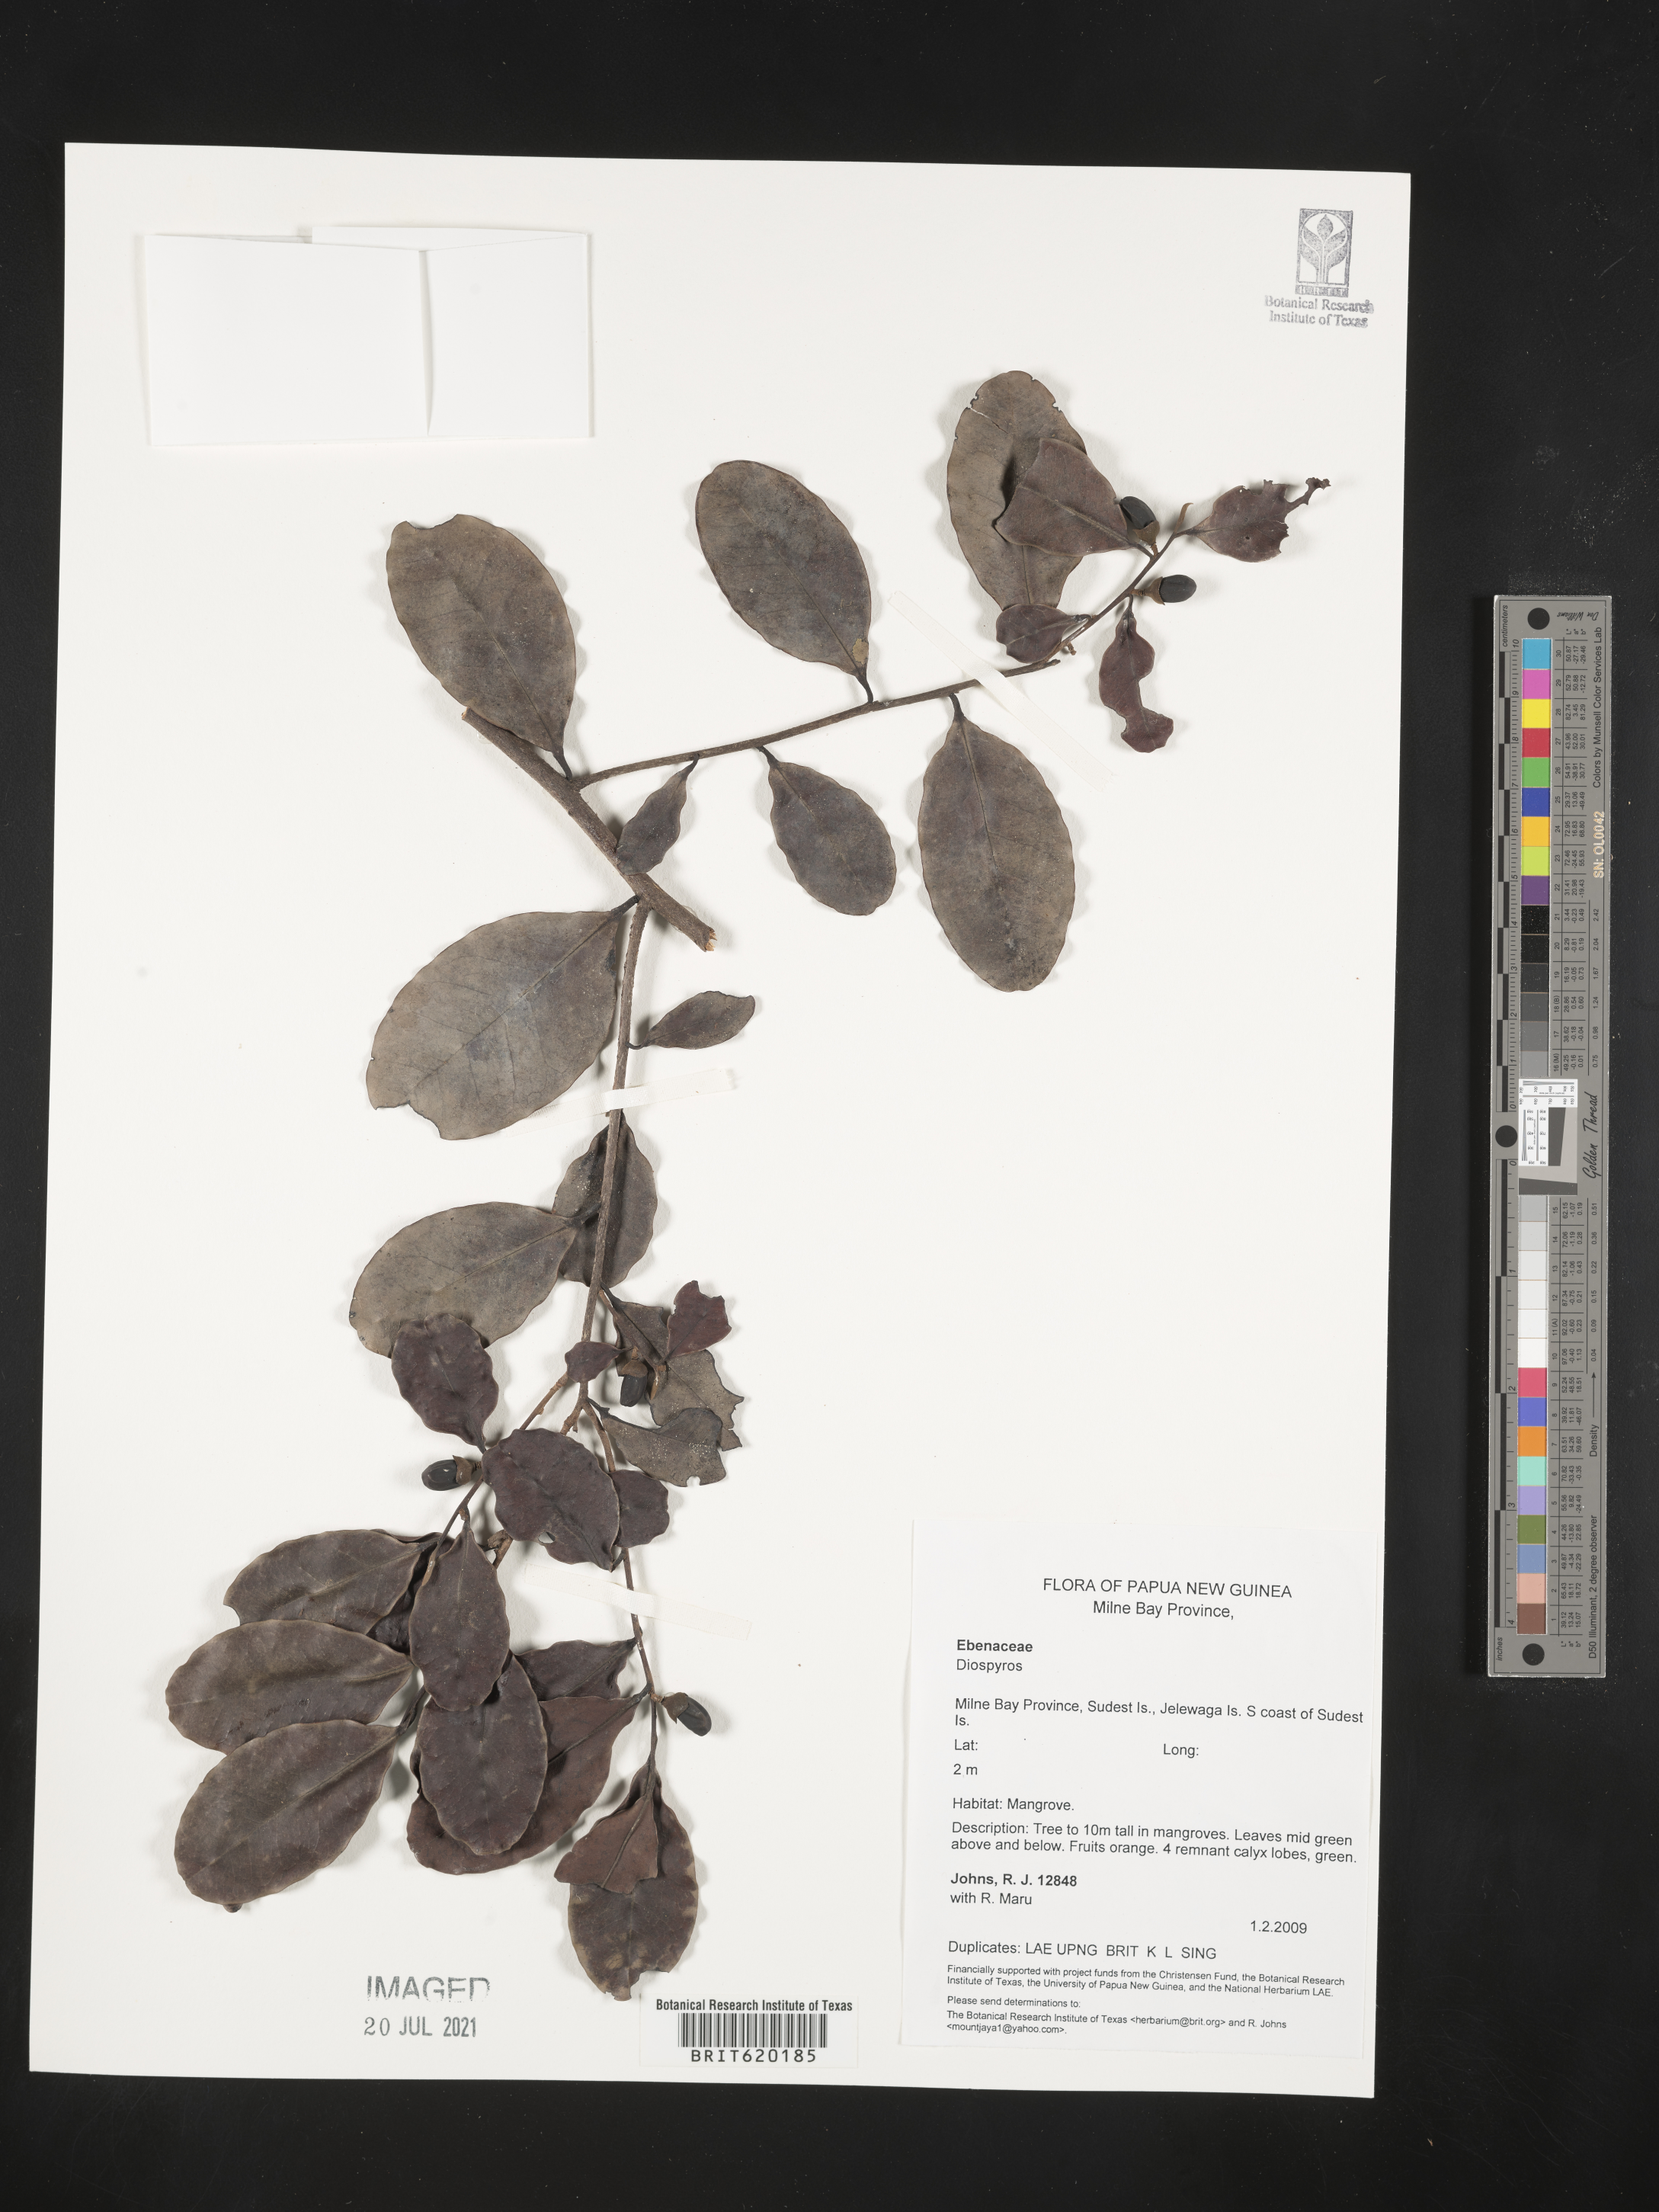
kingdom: Plantae
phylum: Tracheophyta
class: Magnoliopsida
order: Ericales
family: Ebenaceae
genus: Diospyros
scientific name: Diospyros
